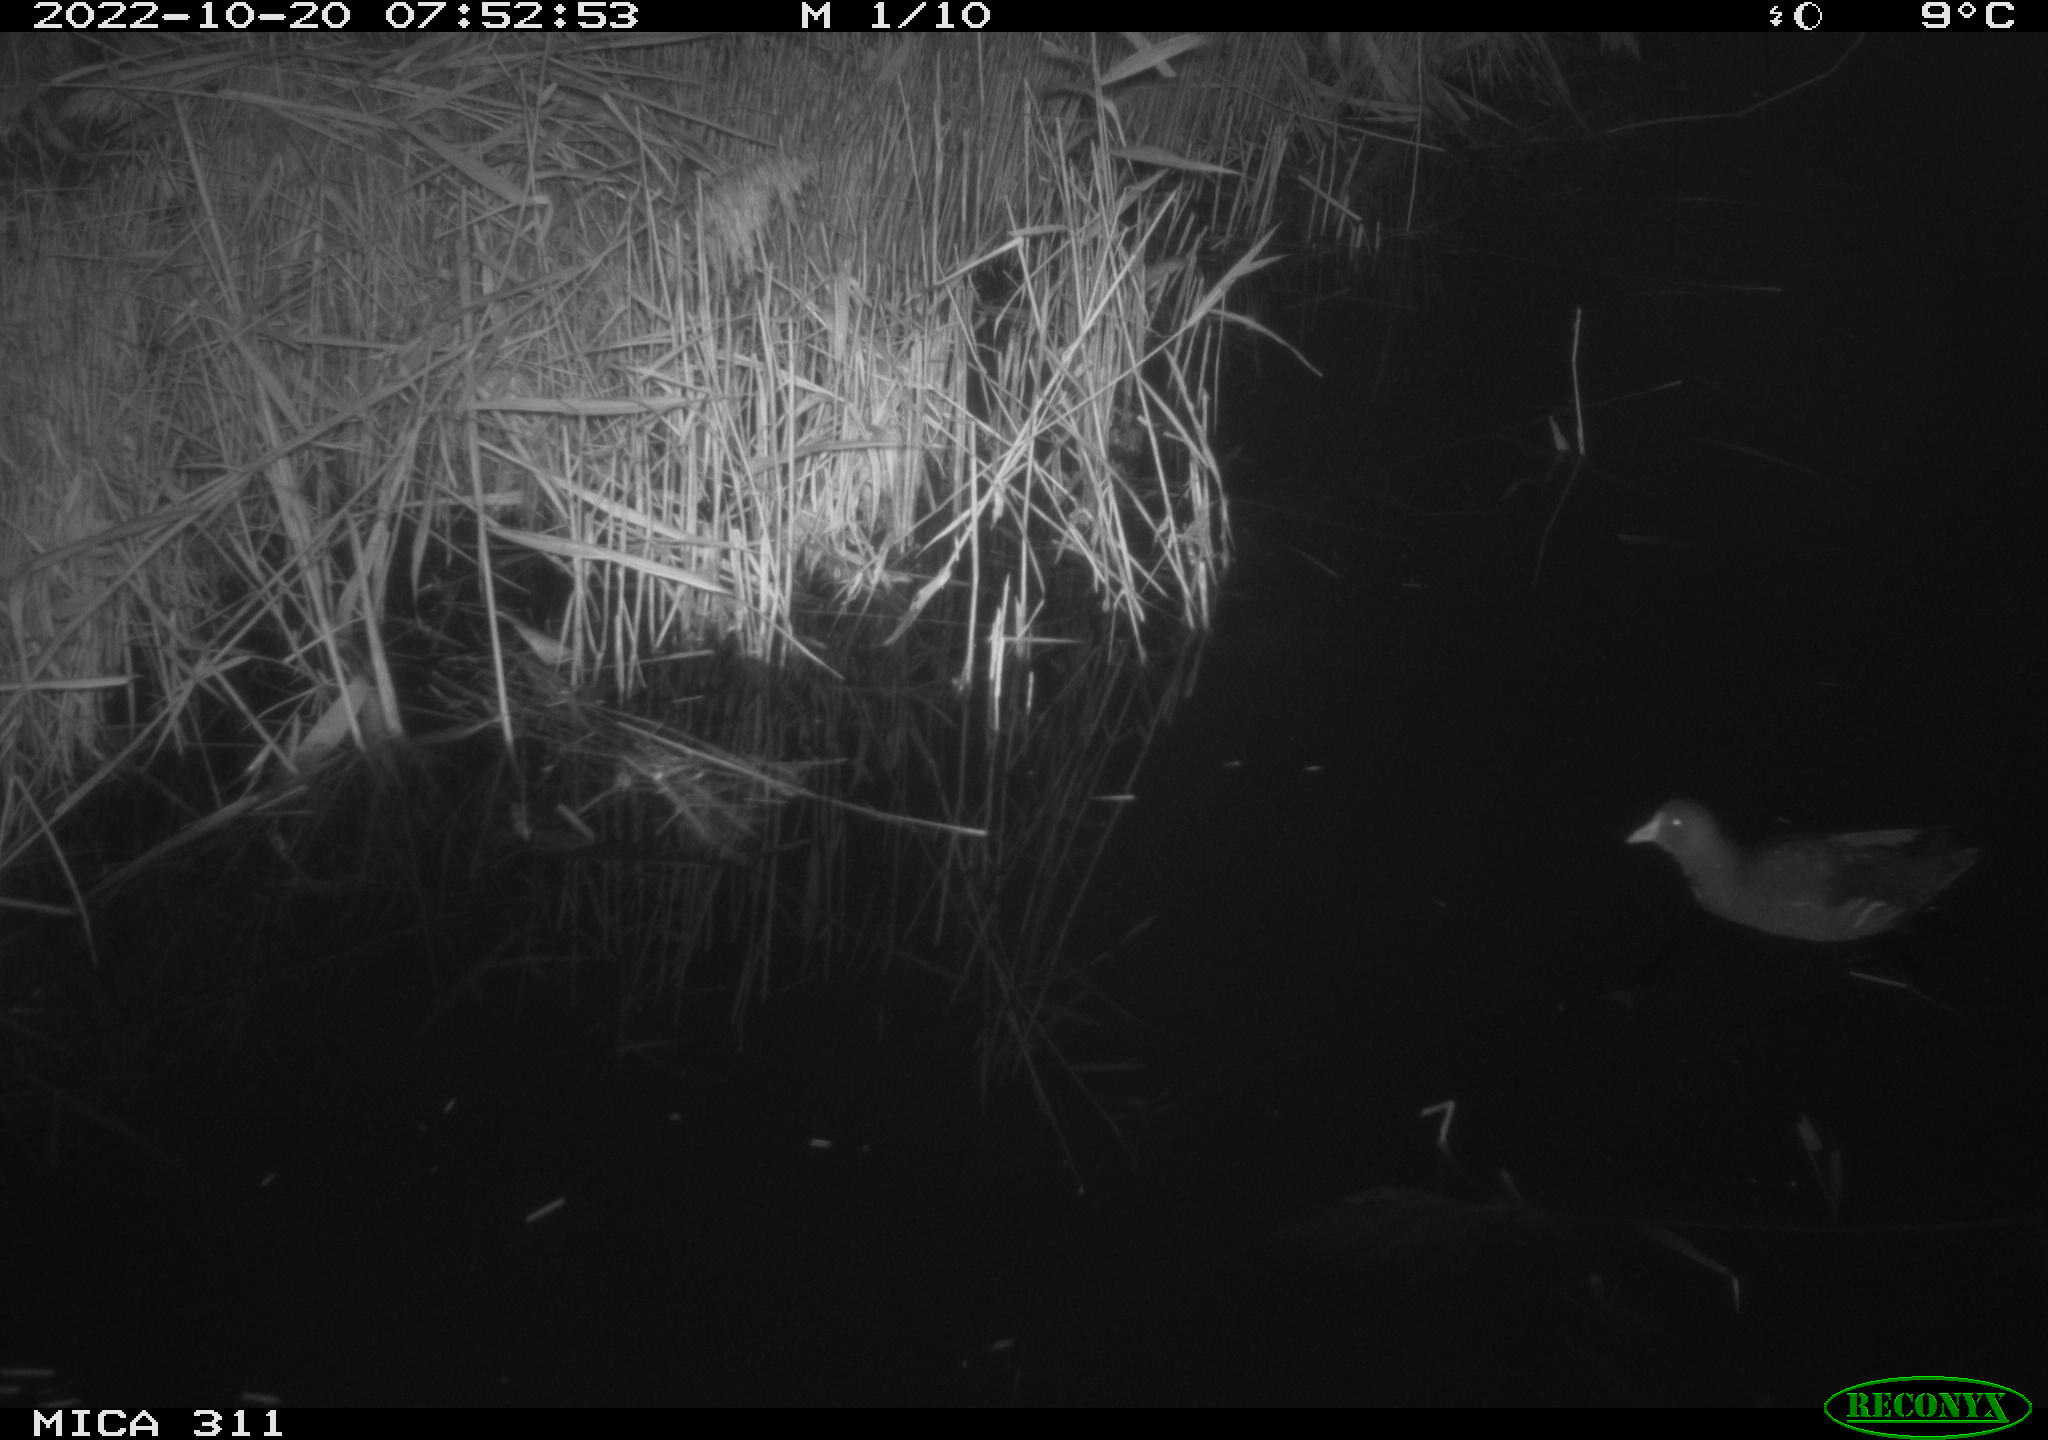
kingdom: Animalia
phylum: Chordata
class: Aves
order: Gruiformes
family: Rallidae
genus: Gallinula
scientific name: Gallinula chloropus
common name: Common moorhen
